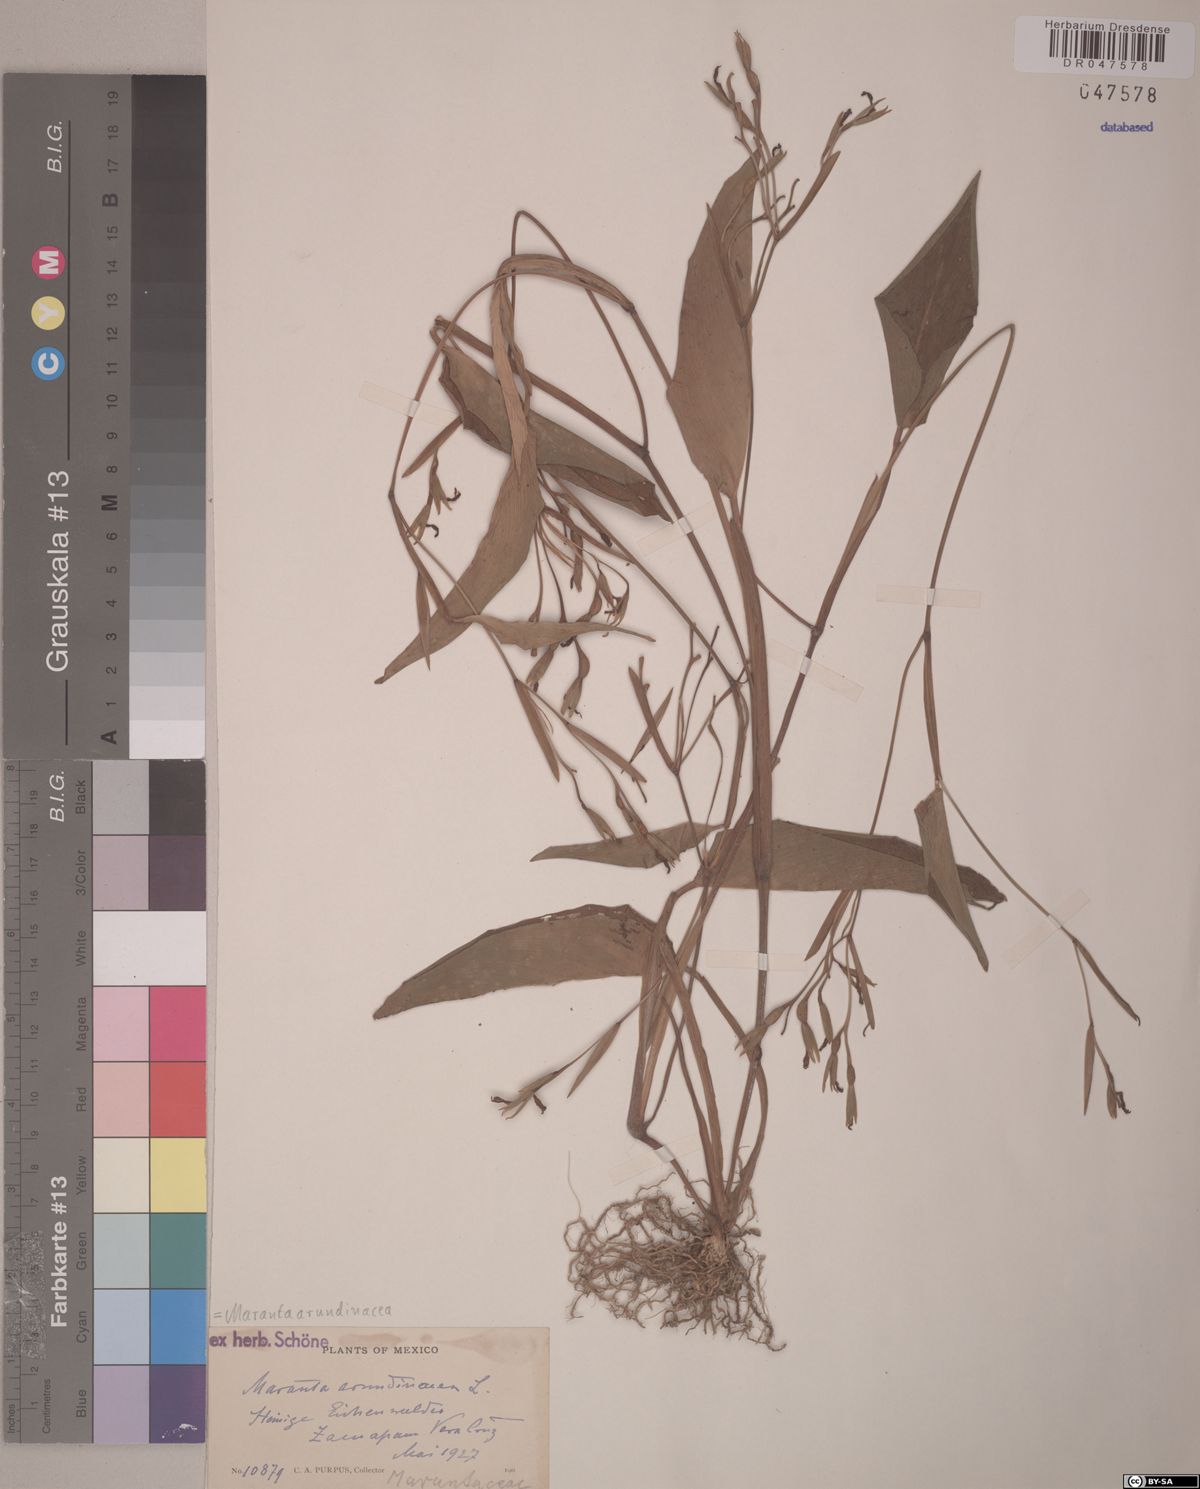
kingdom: Plantae
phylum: Tracheophyta
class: Liliopsida
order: Zingiberales
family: Marantaceae
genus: Maranta
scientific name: Maranta arundinacea
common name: Arrowroot
